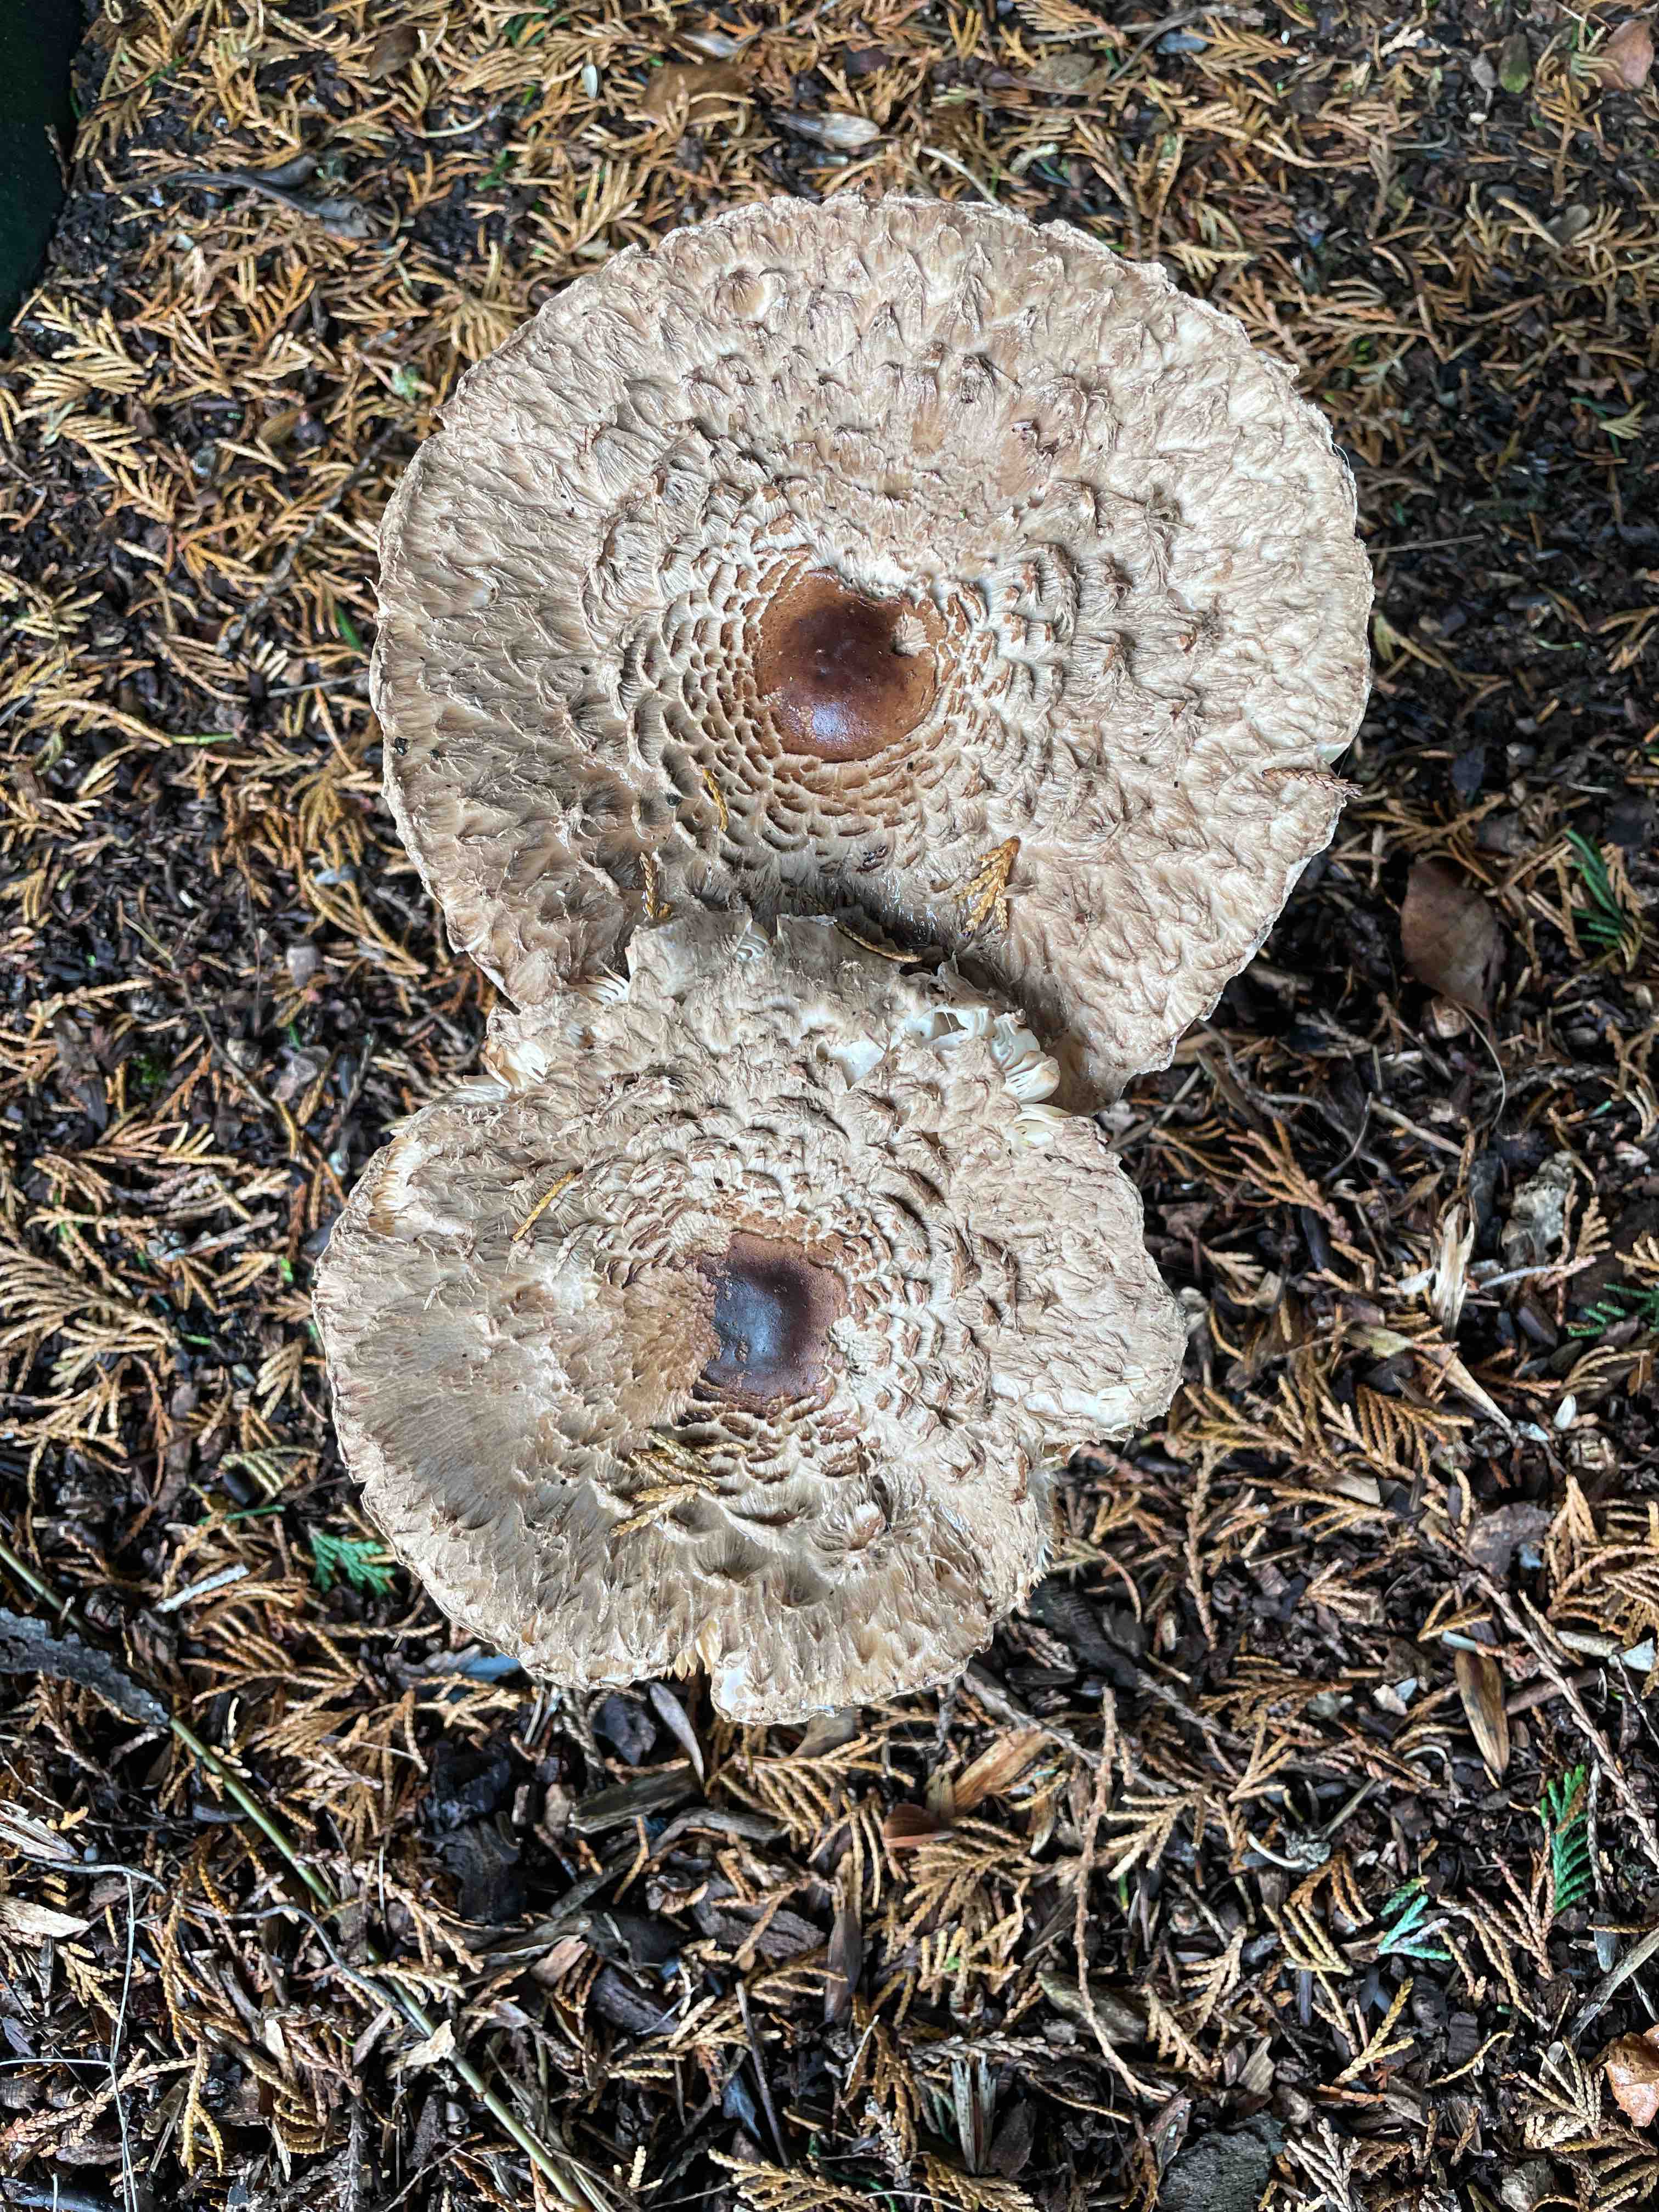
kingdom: Fungi
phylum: Basidiomycota
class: Agaricomycetes
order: Agaricales
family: Agaricaceae
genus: Chlorophyllum
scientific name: Chlorophyllum olivieri
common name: almindelig rabarberhat
